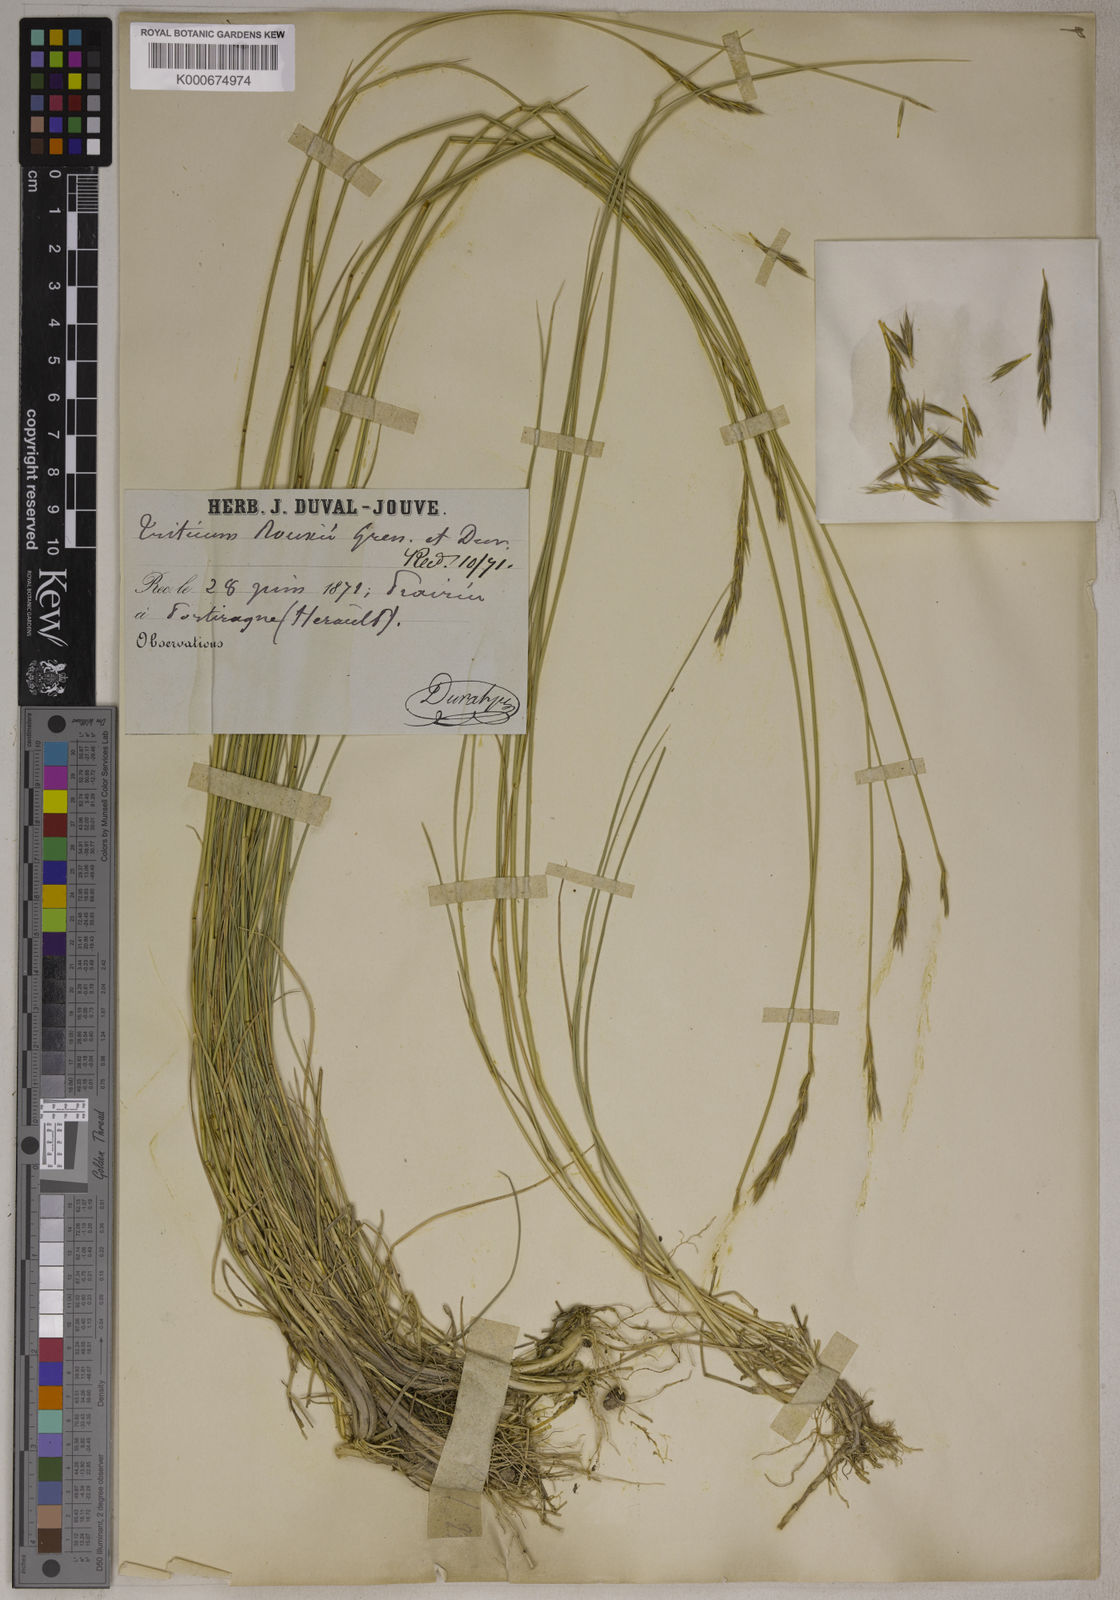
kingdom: Plantae
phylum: Tracheophyta
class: Liliopsida
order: Poales
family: Poaceae
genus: Thinopyrum
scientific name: Thinopyrum acutum
